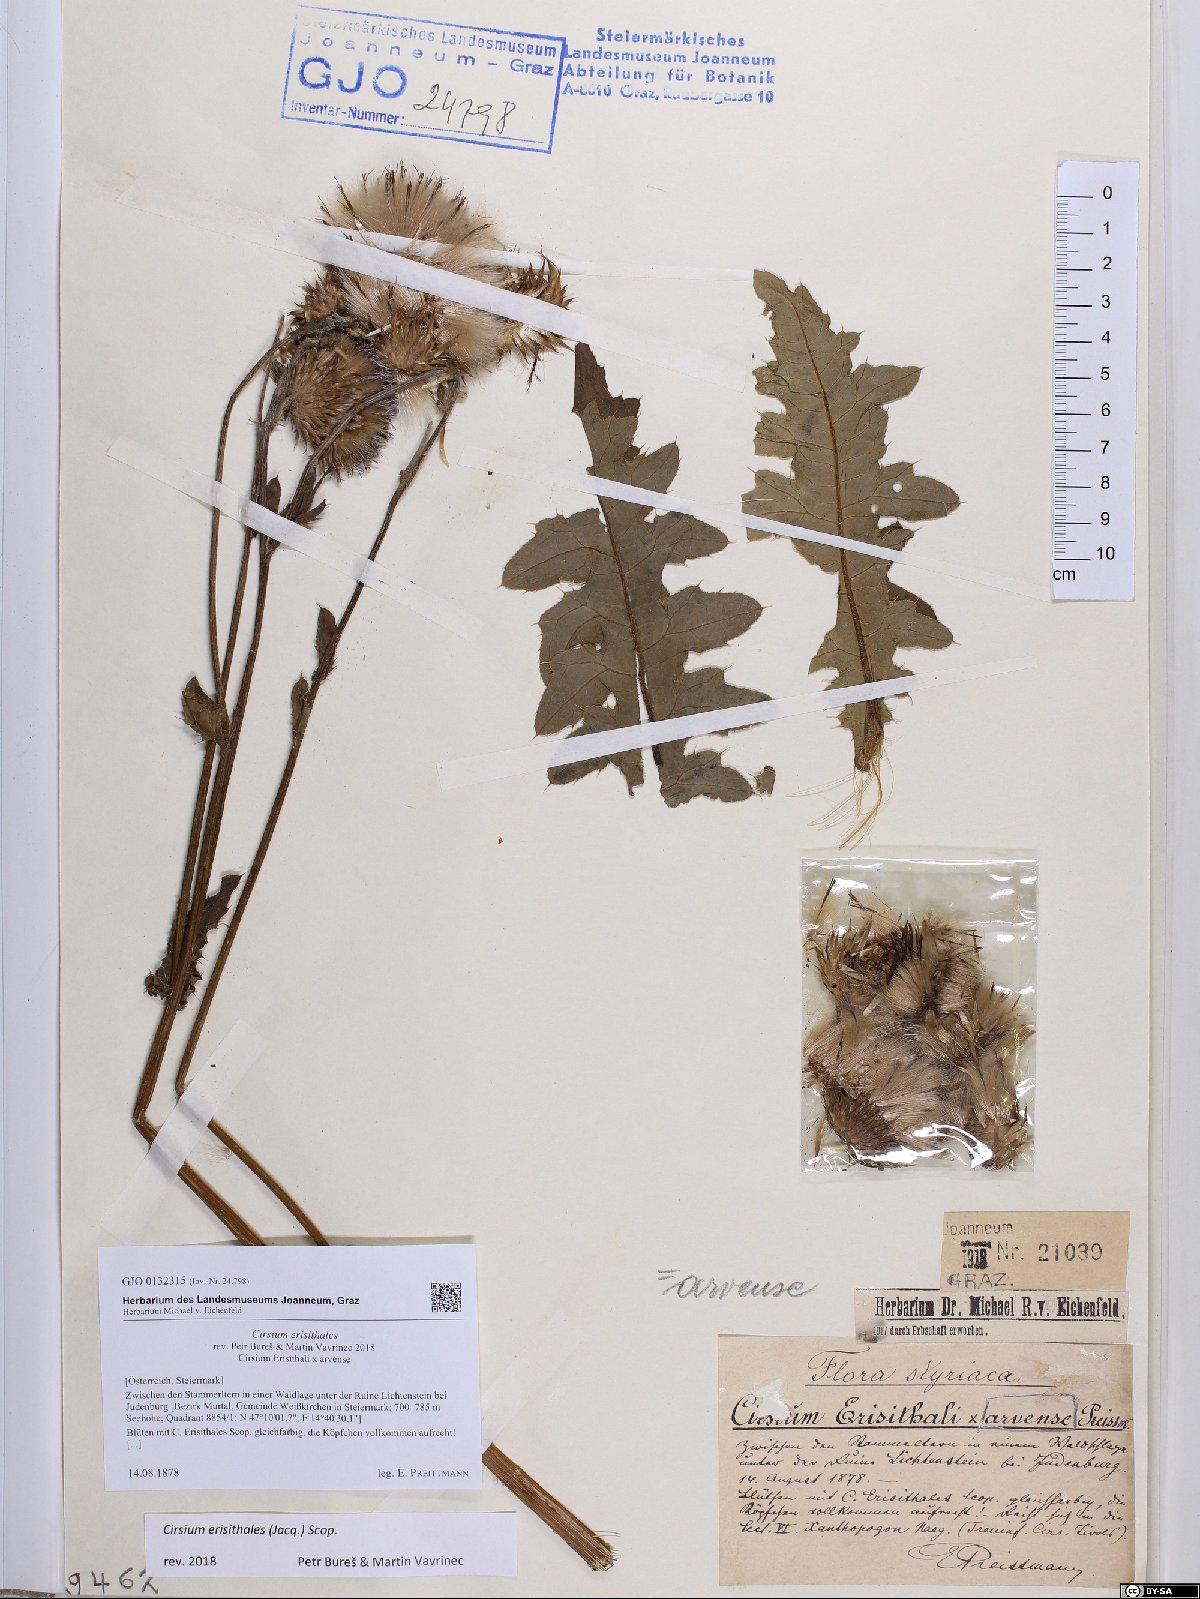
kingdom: Plantae
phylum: Tracheophyta
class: Magnoliopsida
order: Asterales
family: Asteraceae
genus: Cirsium
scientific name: Cirsium erisithales
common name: Yellow thistle
